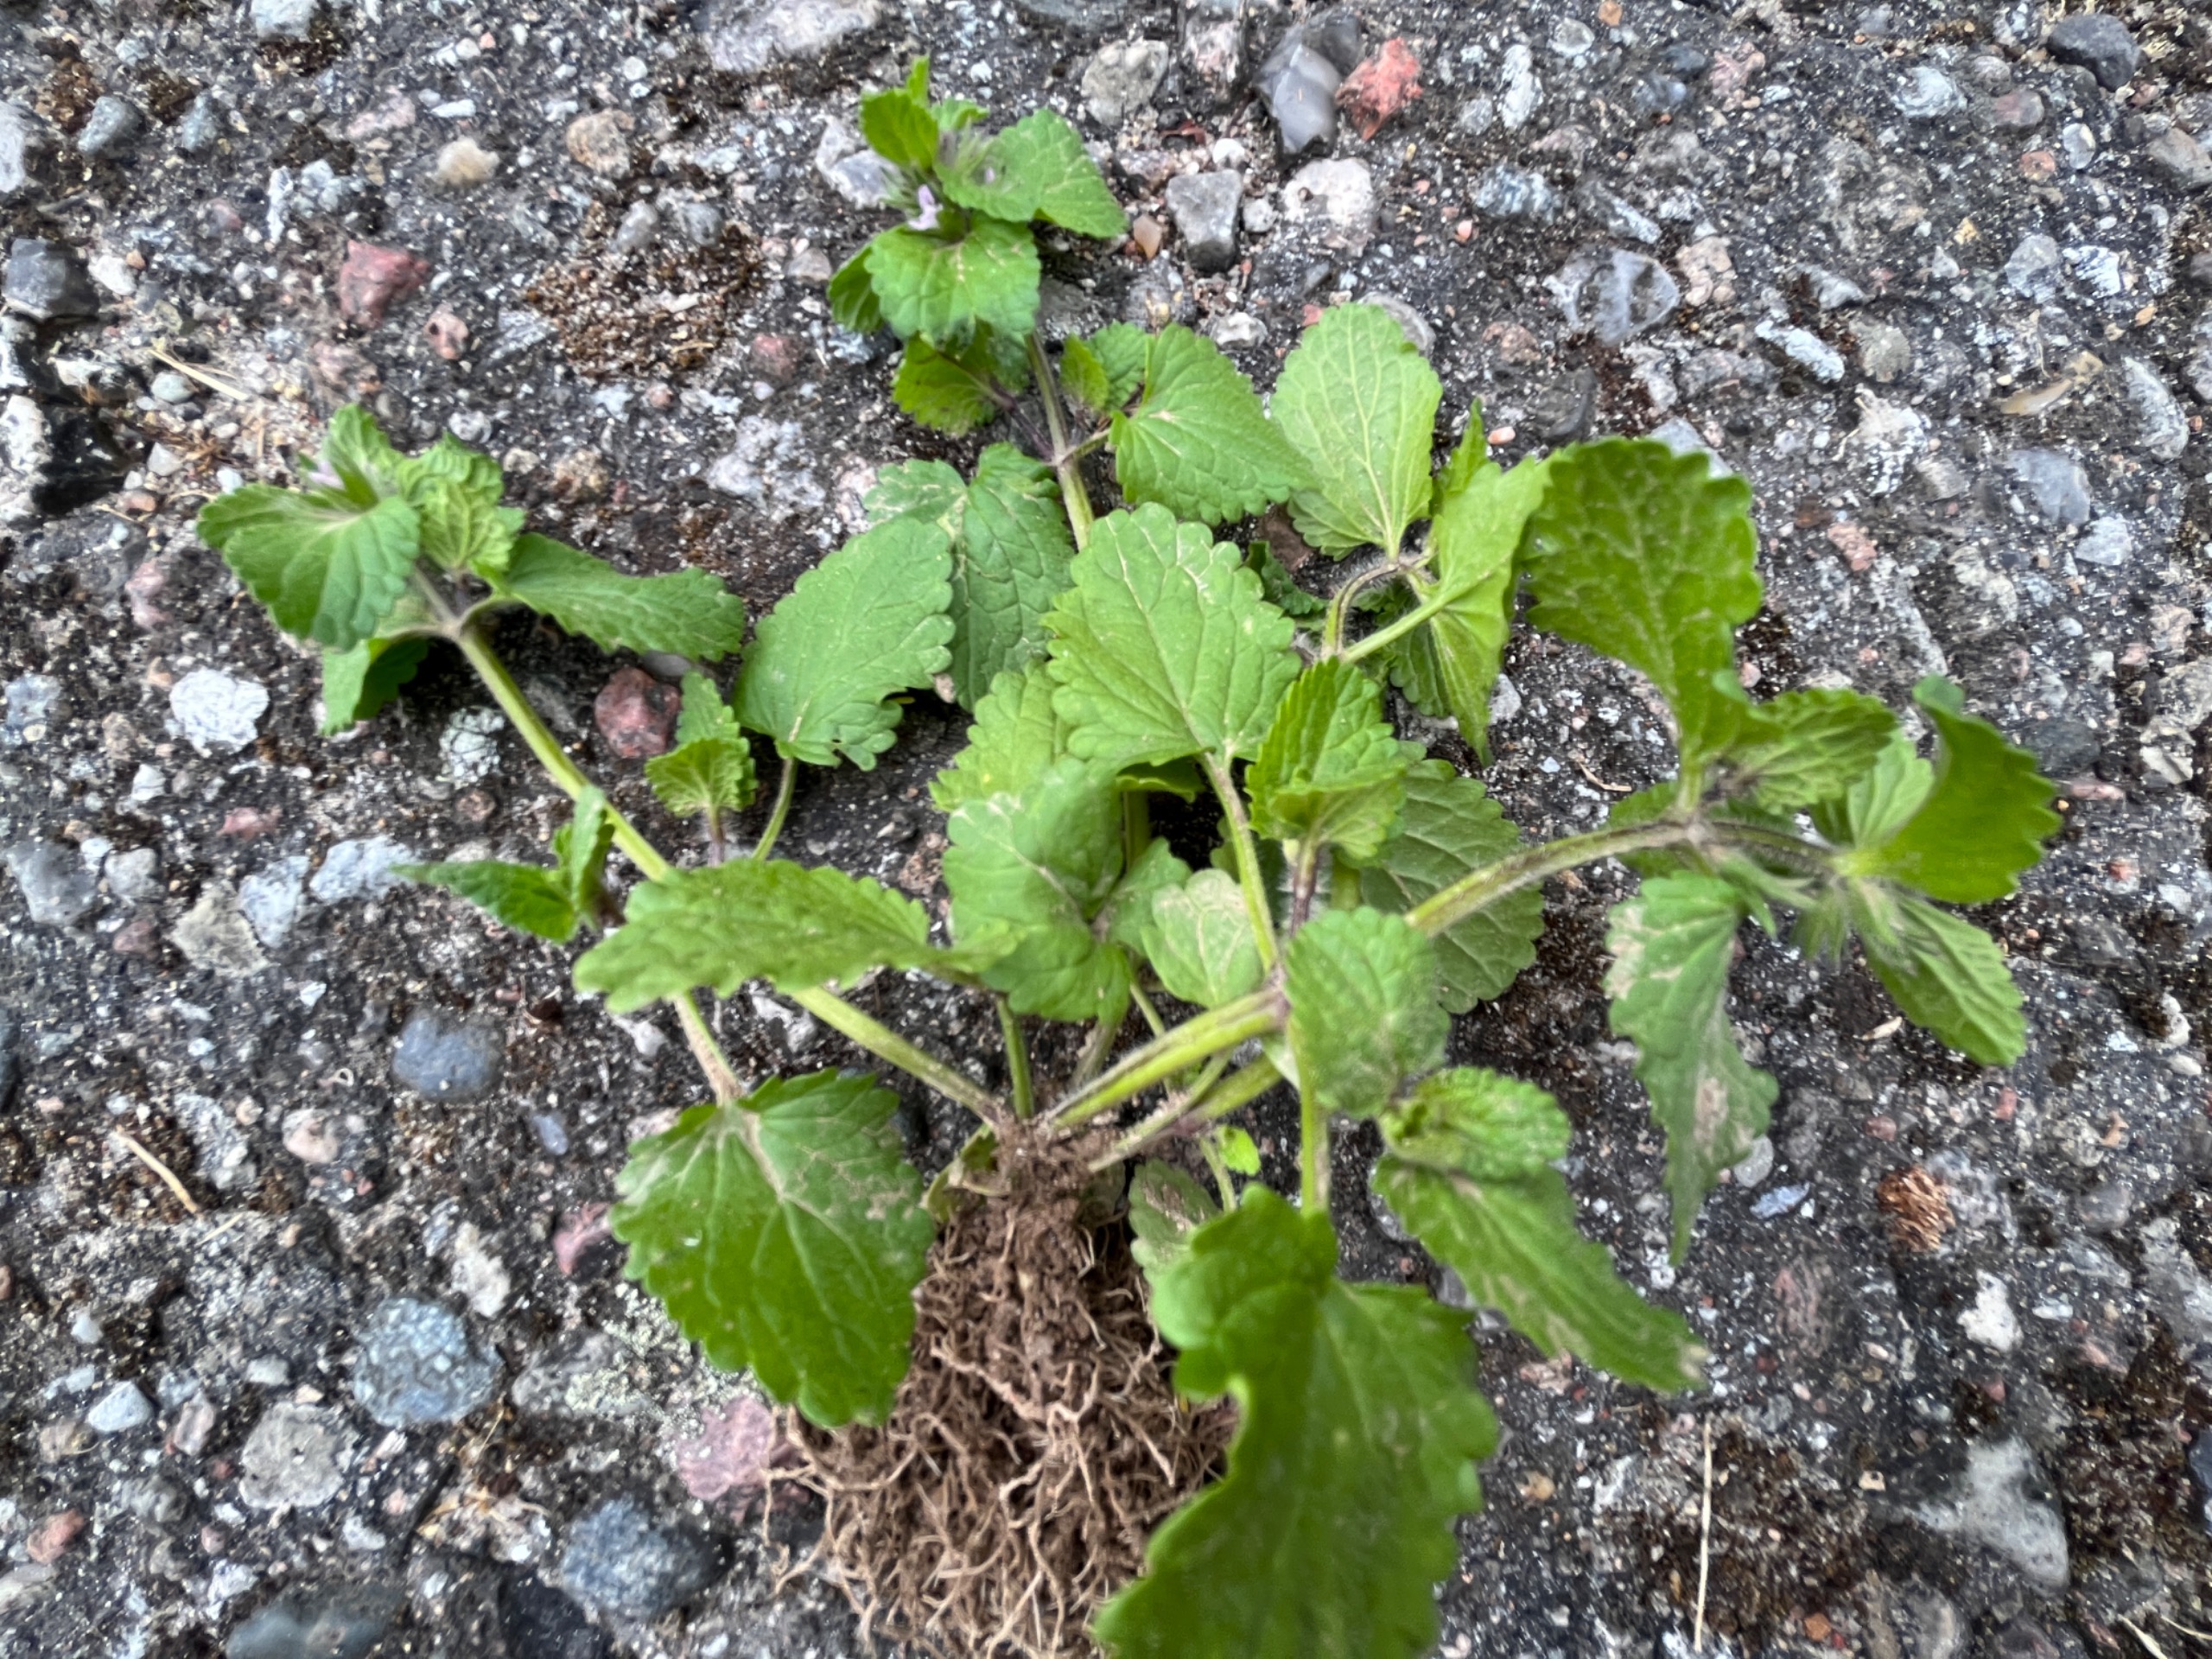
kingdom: Plantae
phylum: Tracheophyta
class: Magnoliopsida
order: Lamiales
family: Lamiaceae
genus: Stachys
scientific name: Stachys arvensis
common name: Ager-galtetand
